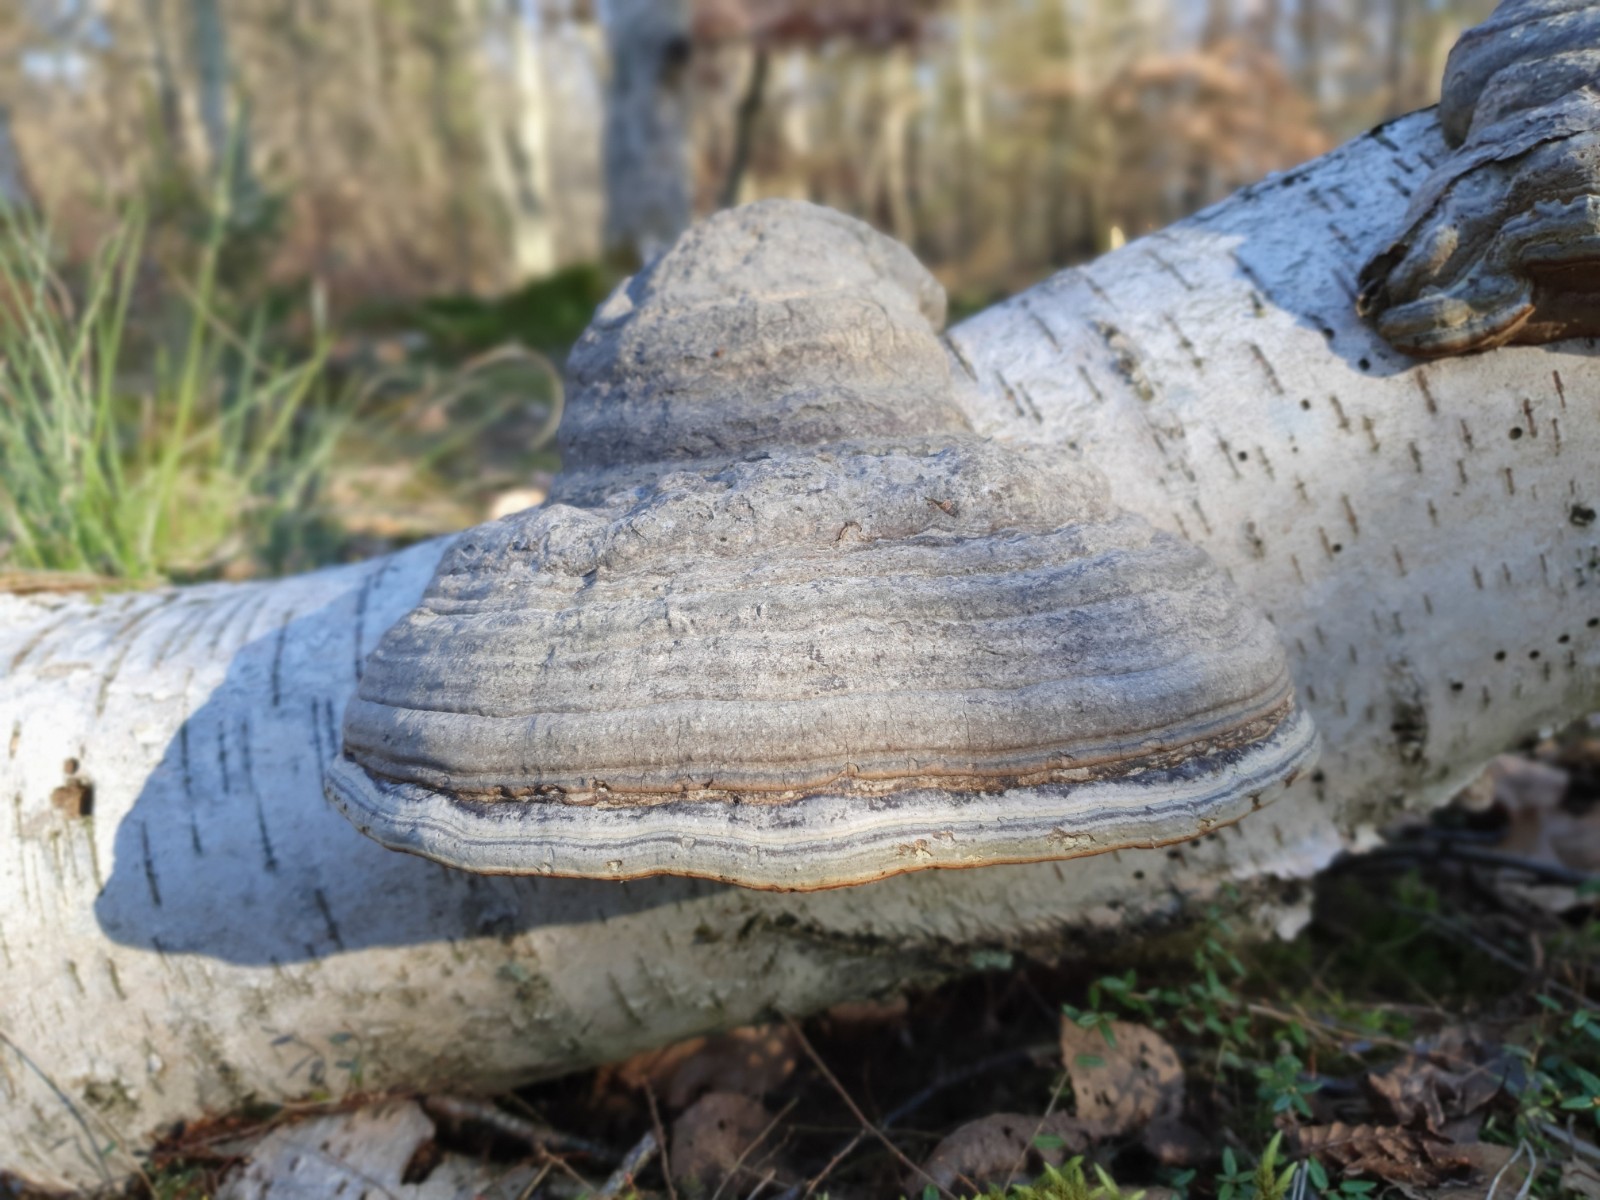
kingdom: Fungi
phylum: Basidiomycota
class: Agaricomycetes
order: Polyporales
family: Polyporaceae
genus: Fomes
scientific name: Fomes fomentarius
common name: tøndersvamp
